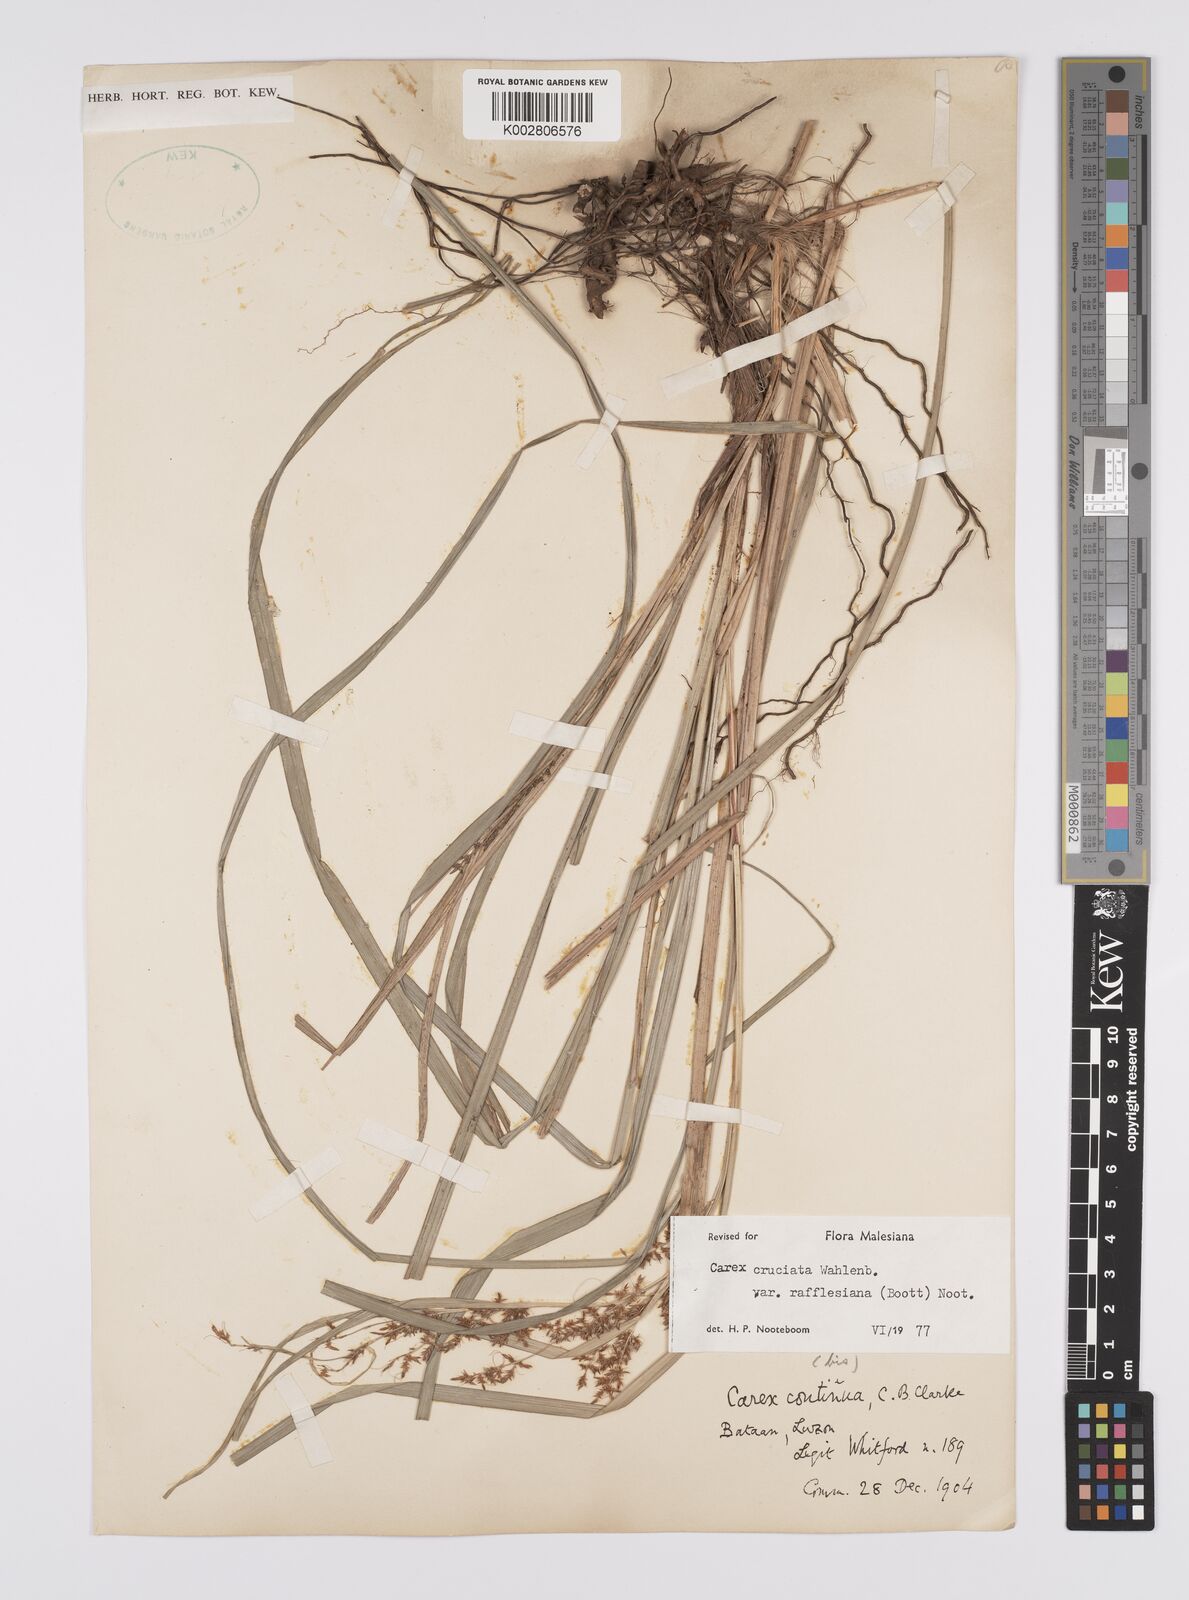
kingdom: Plantae
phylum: Tracheophyta
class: Liliopsida
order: Poales
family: Cyperaceae
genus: Carex
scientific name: Carex rafflesiana
